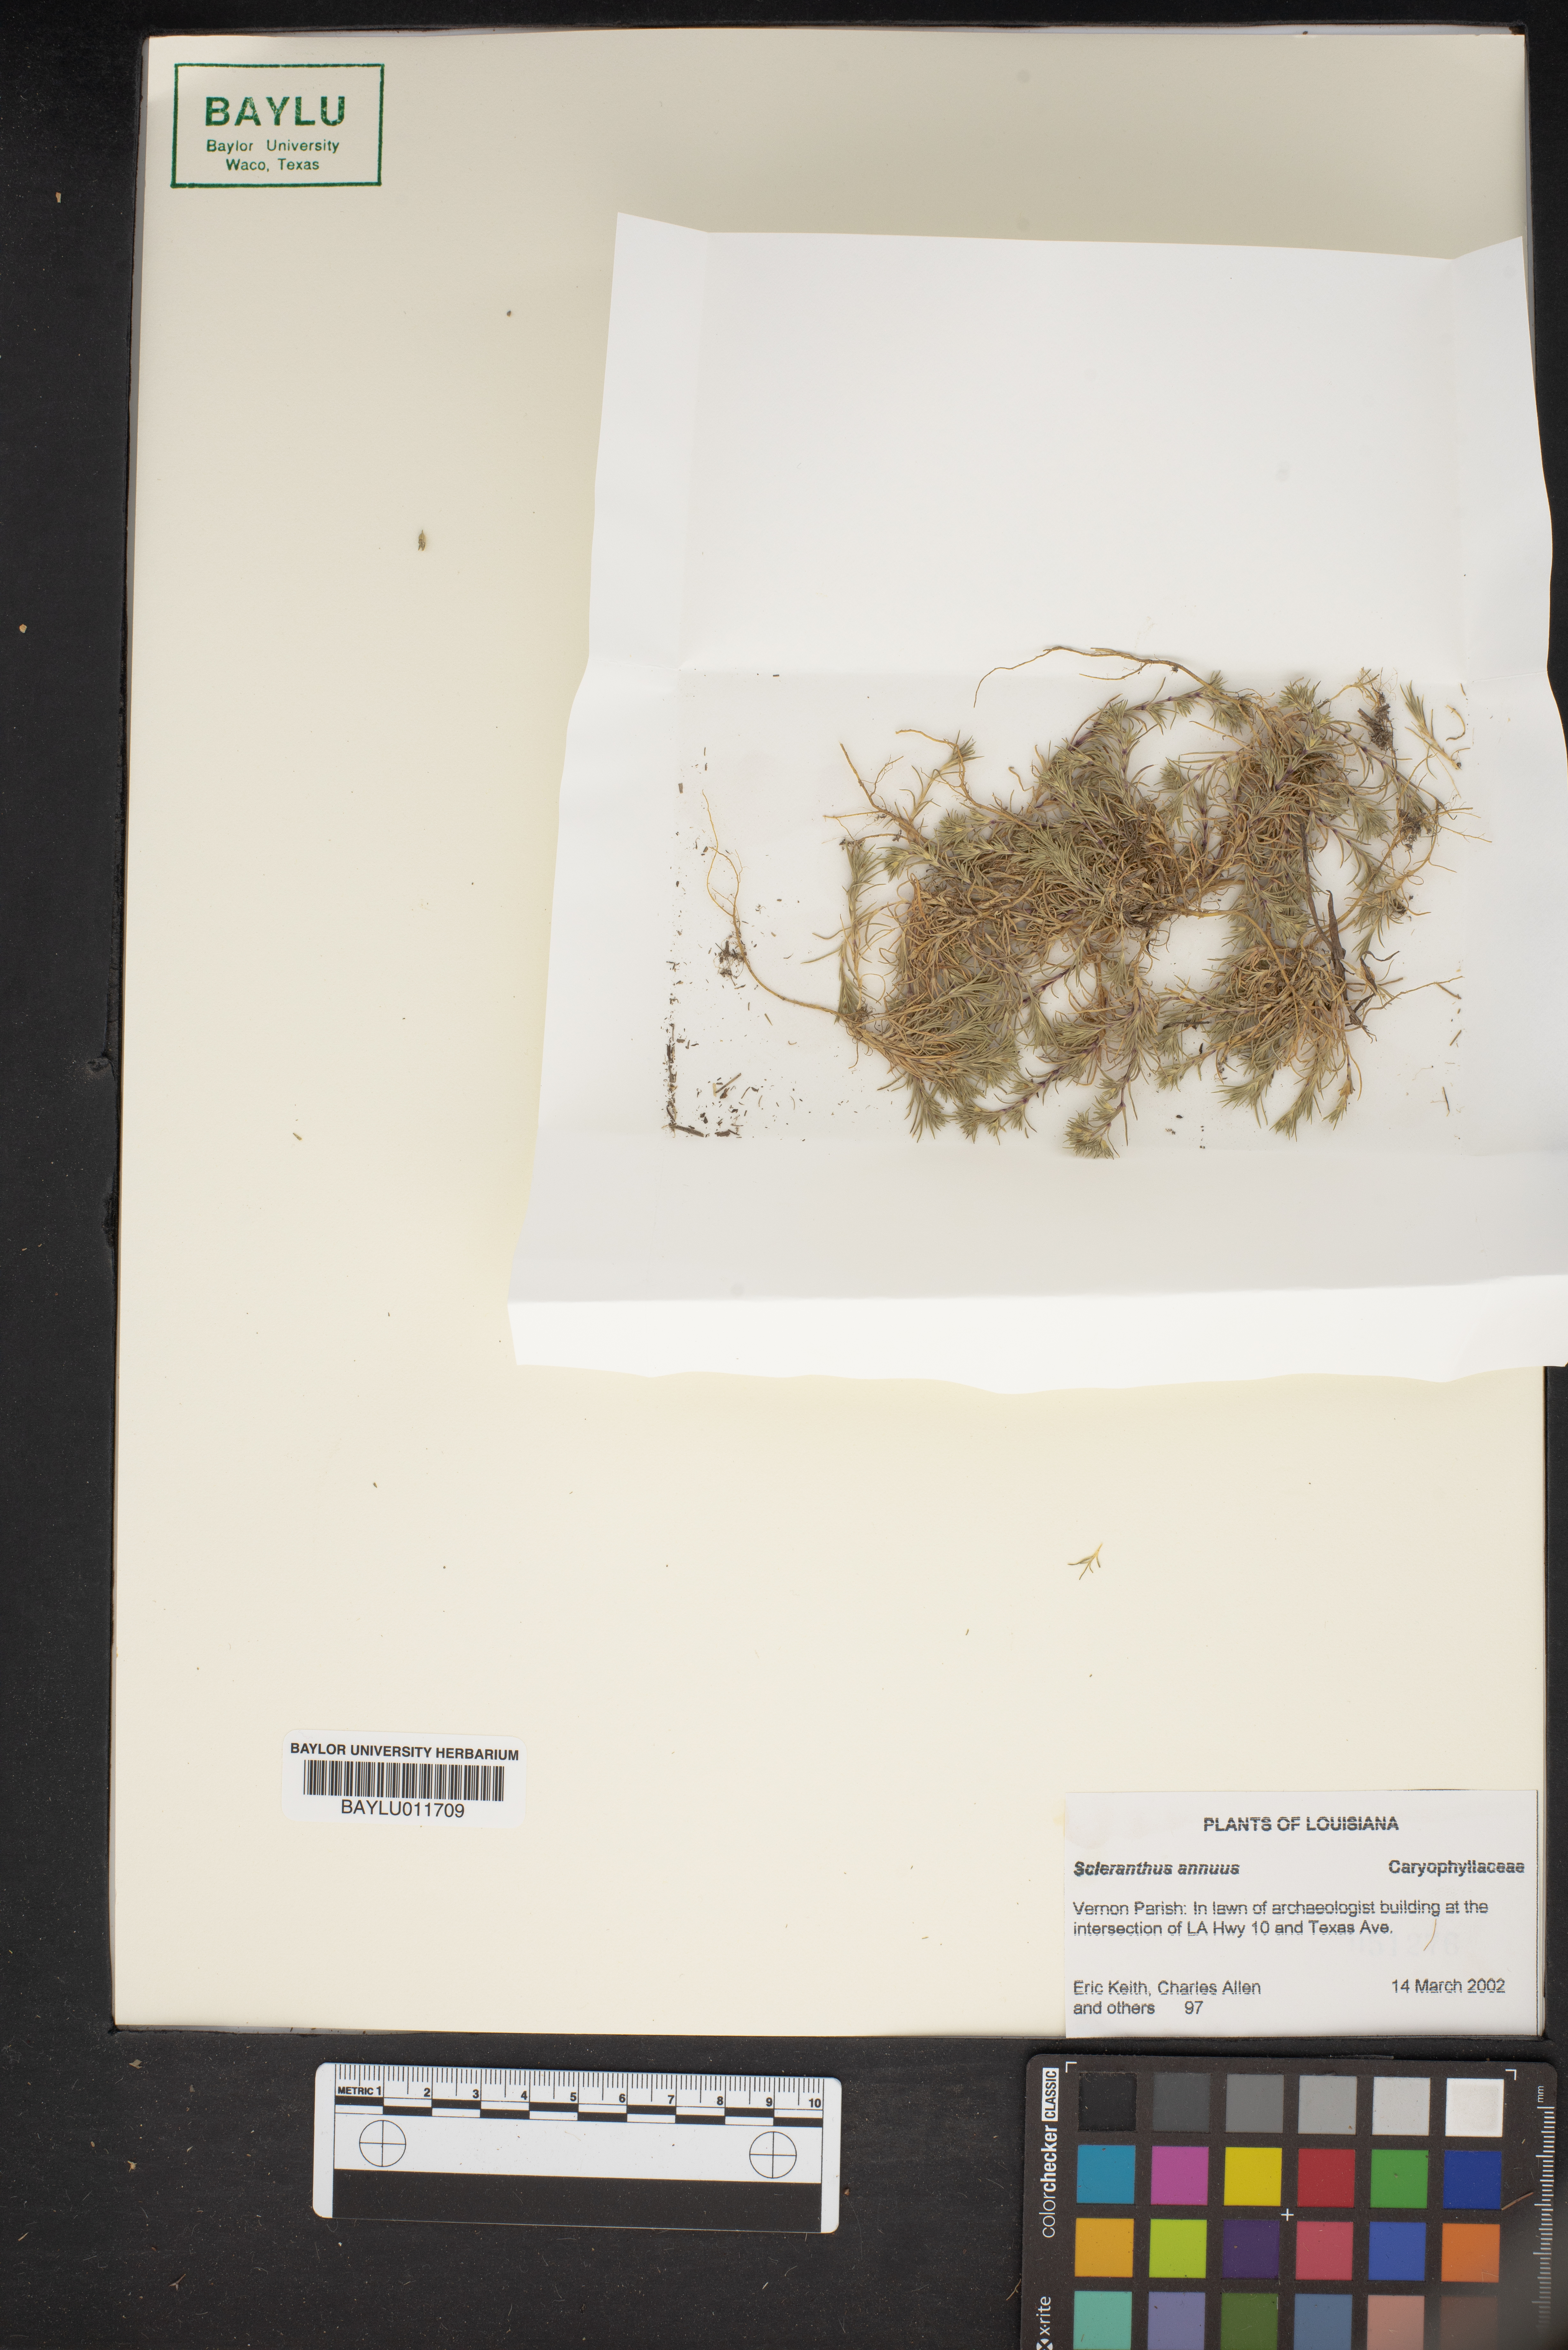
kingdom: Plantae
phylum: Tracheophyta
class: Magnoliopsida
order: Caryophyllales
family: Caryophyllaceae
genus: Scleranthus
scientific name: Scleranthus annuus
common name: Annual knawel
